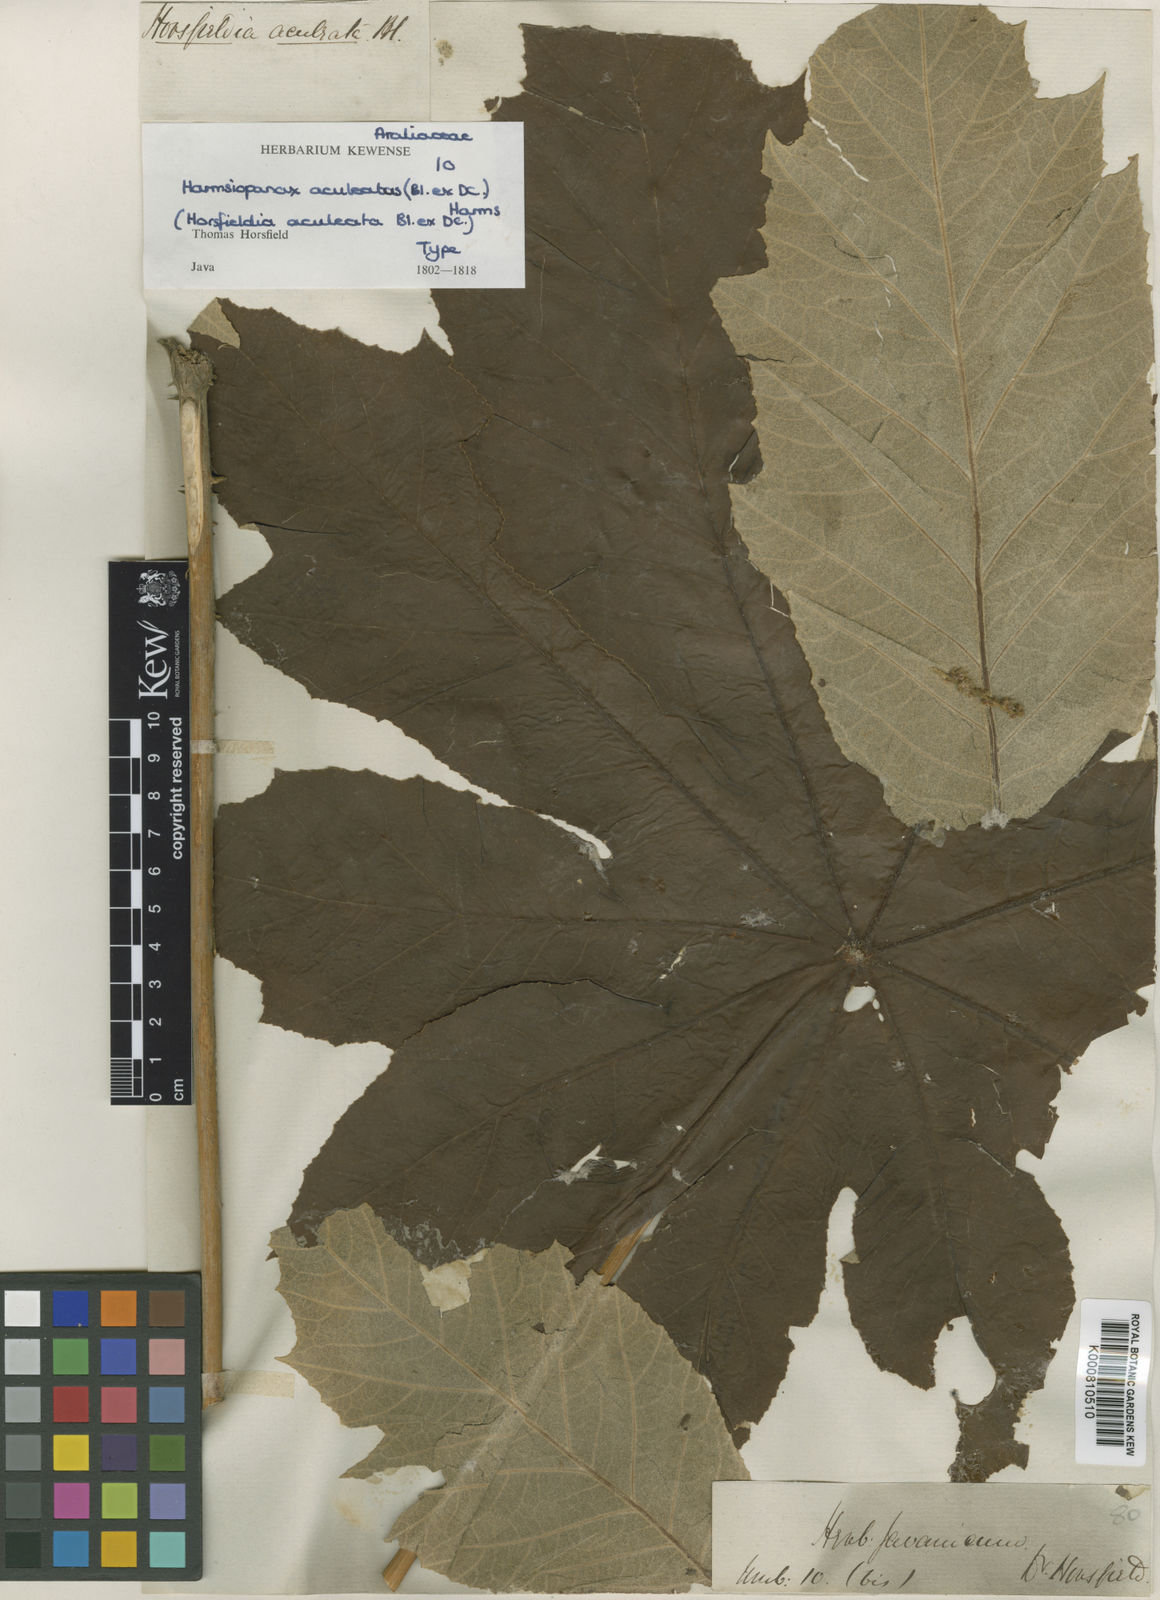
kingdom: Plantae
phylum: Tracheophyta
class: Magnoliopsida
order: Apiales
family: Araliaceae
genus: Harmsiopanax
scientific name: Harmsiopanax aculeatus
